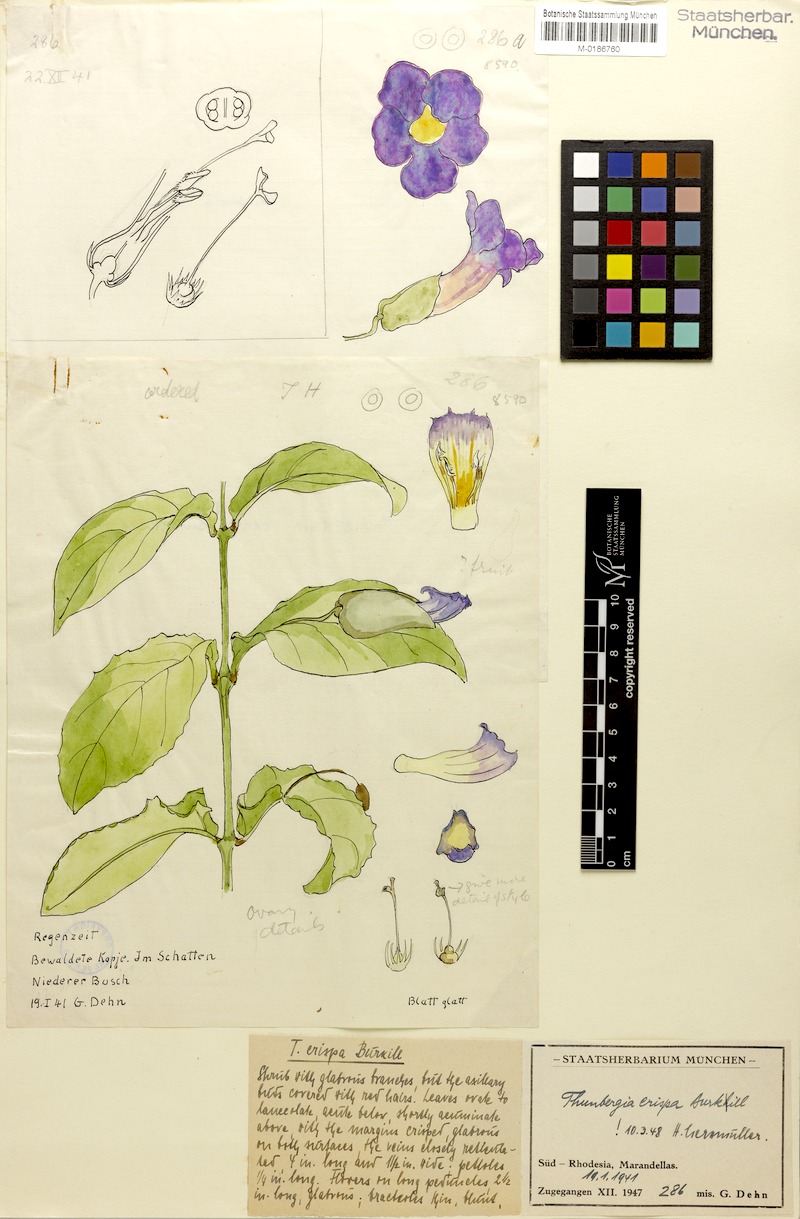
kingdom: Plantae
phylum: Tracheophyta
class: Magnoliopsida
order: Lamiales
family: Acanthaceae
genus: Thunbergia
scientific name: Thunbergia crispa
